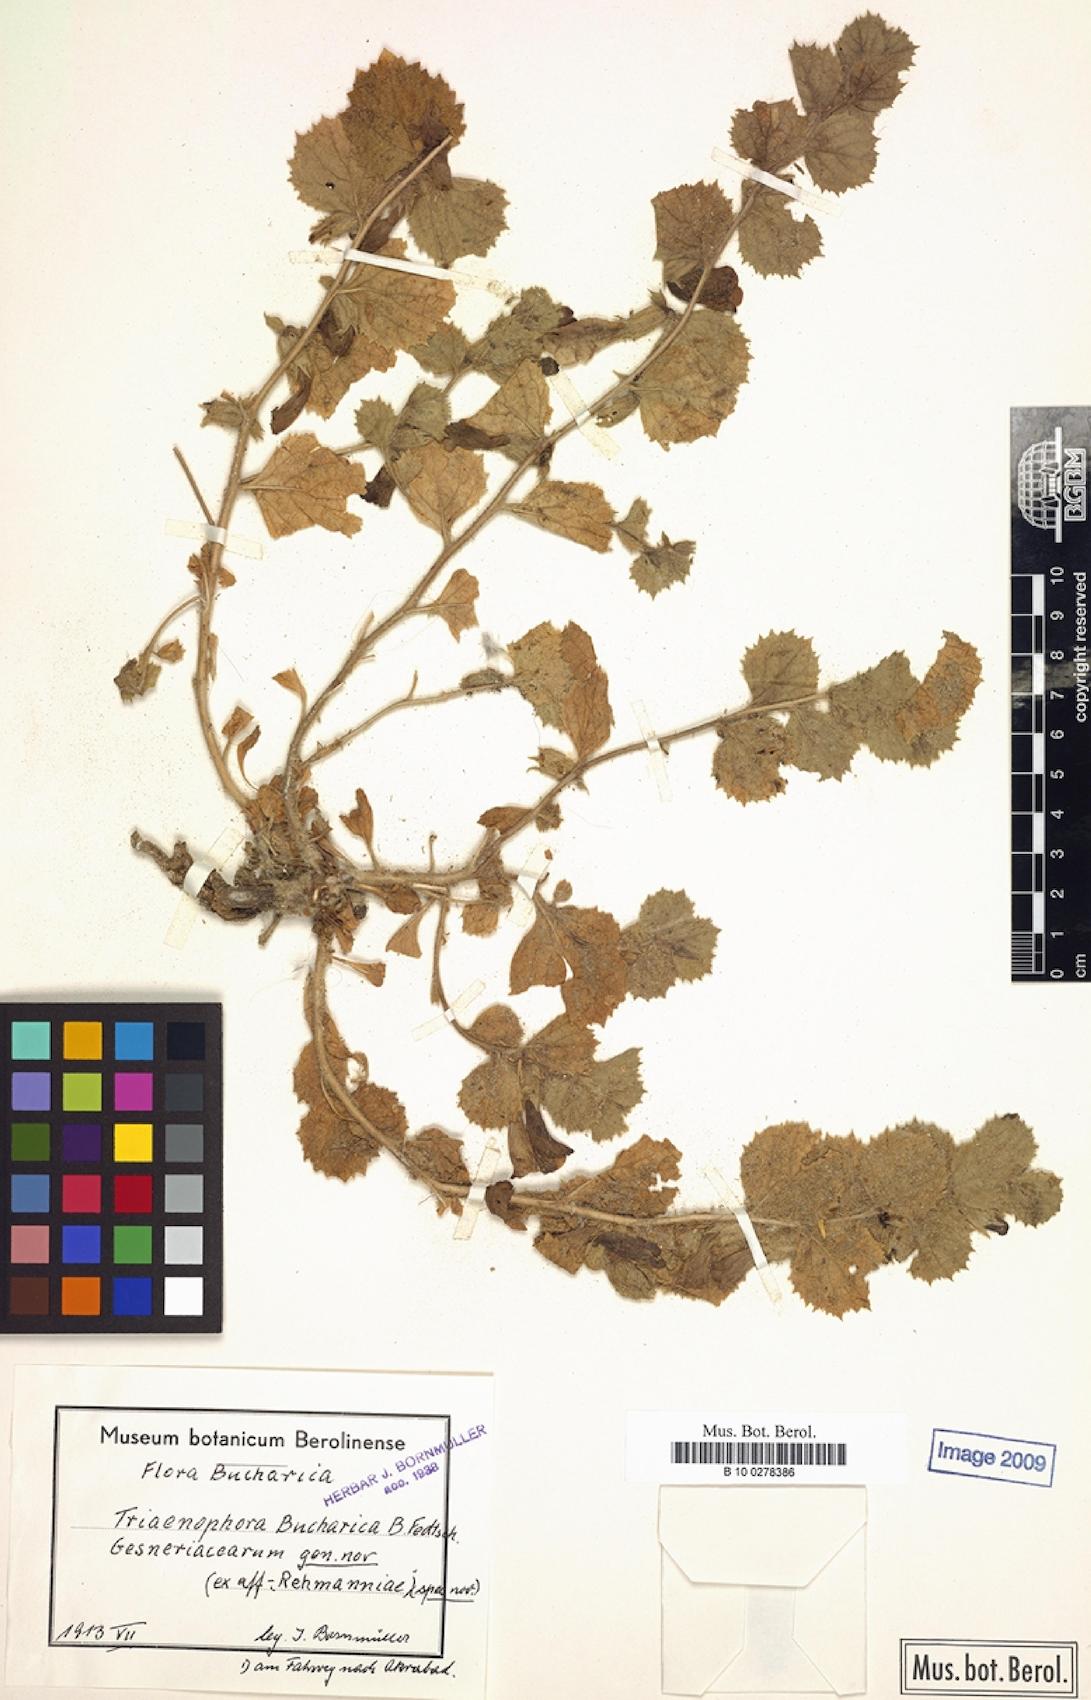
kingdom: Plantae
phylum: Tracheophyta
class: Magnoliopsida
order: Lamiales
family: Rehmanniaceae
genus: Triaenophora
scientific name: Triaenophora bucharica
